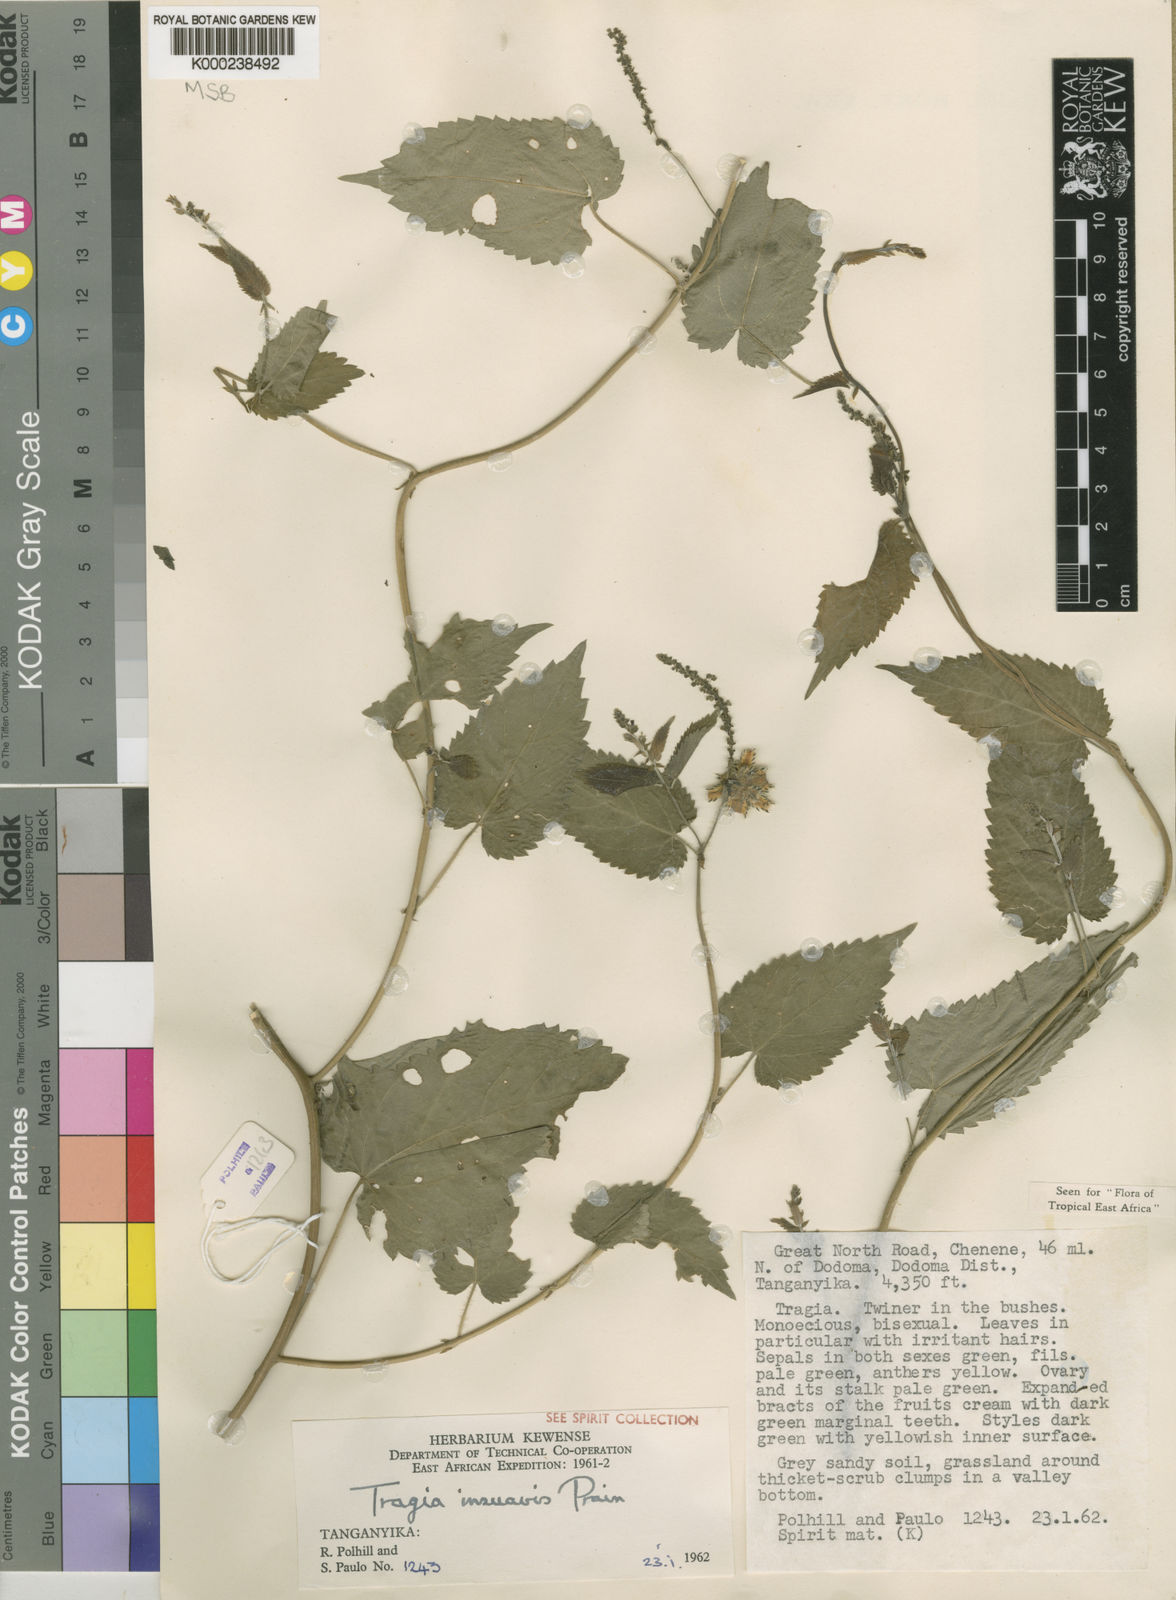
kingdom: Plantae
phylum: Tracheophyta
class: Magnoliopsida
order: Malpighiales
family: Euphorbiaceae
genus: Tragia
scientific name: Tragia insuavis
